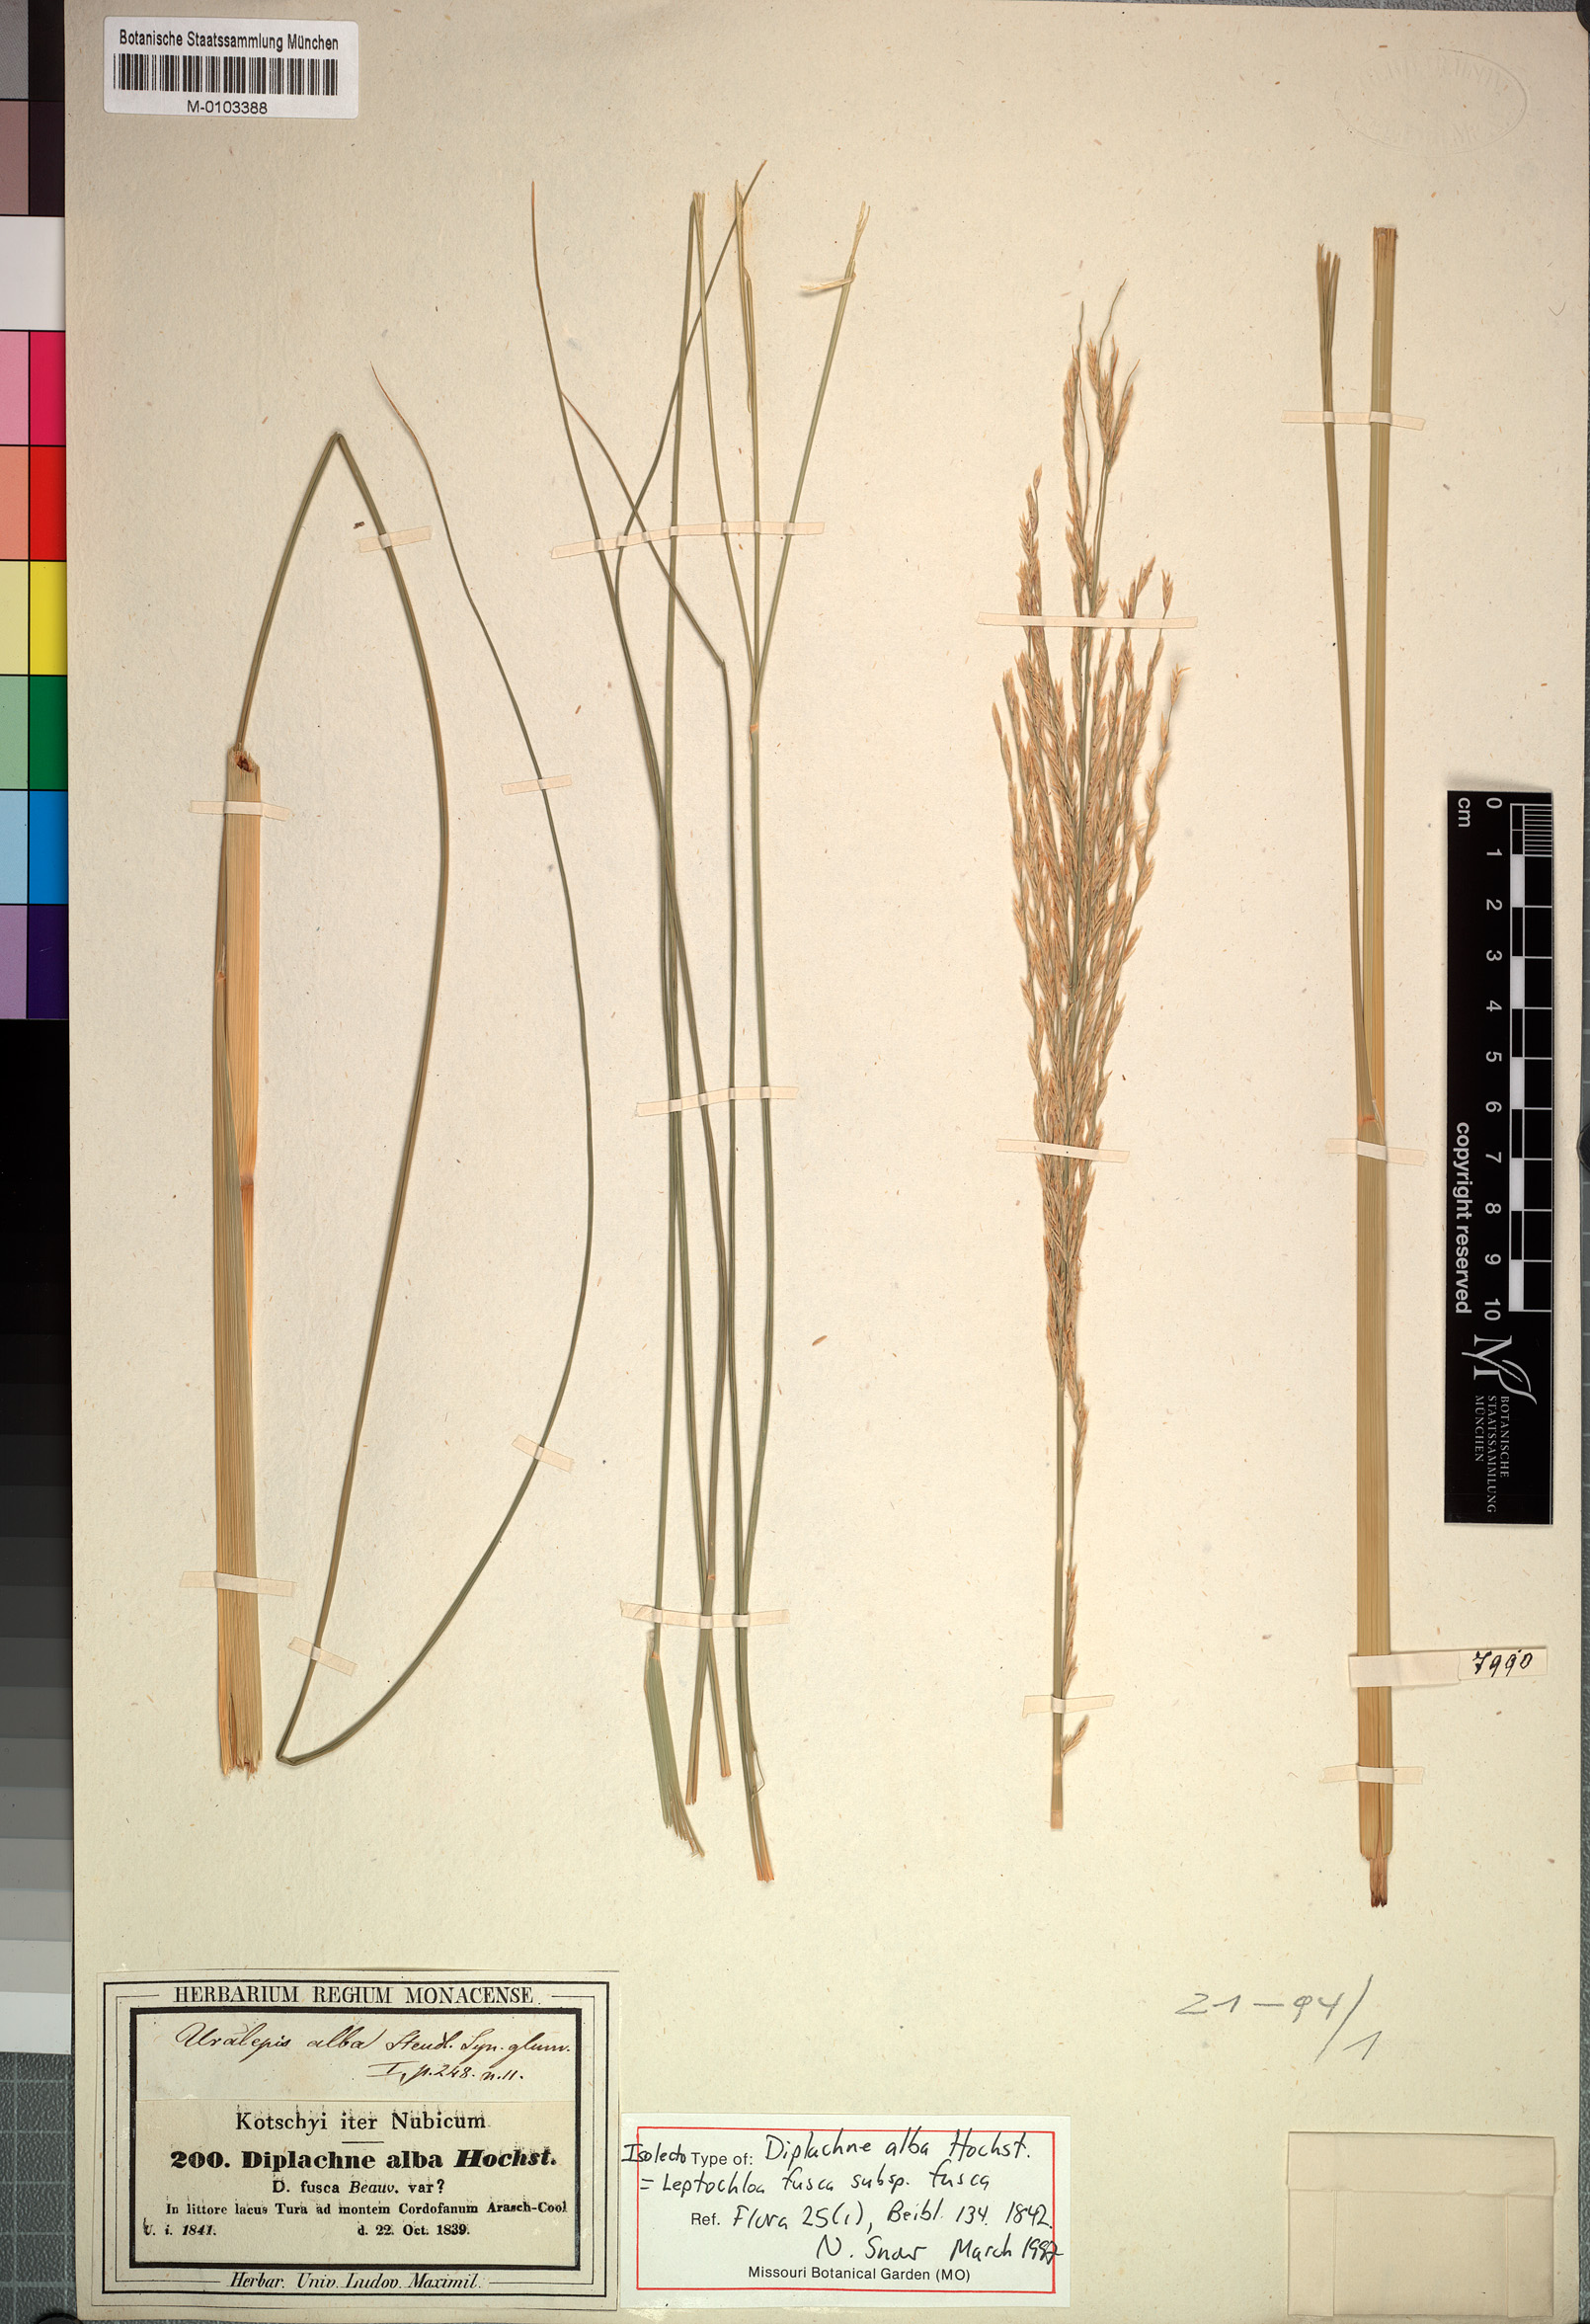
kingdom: Plantae
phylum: Tracheophyta
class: Liliopsida
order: Poales
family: Poaceae
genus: Diplachne
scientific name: Diplachne fusca
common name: Brown beetle grass
